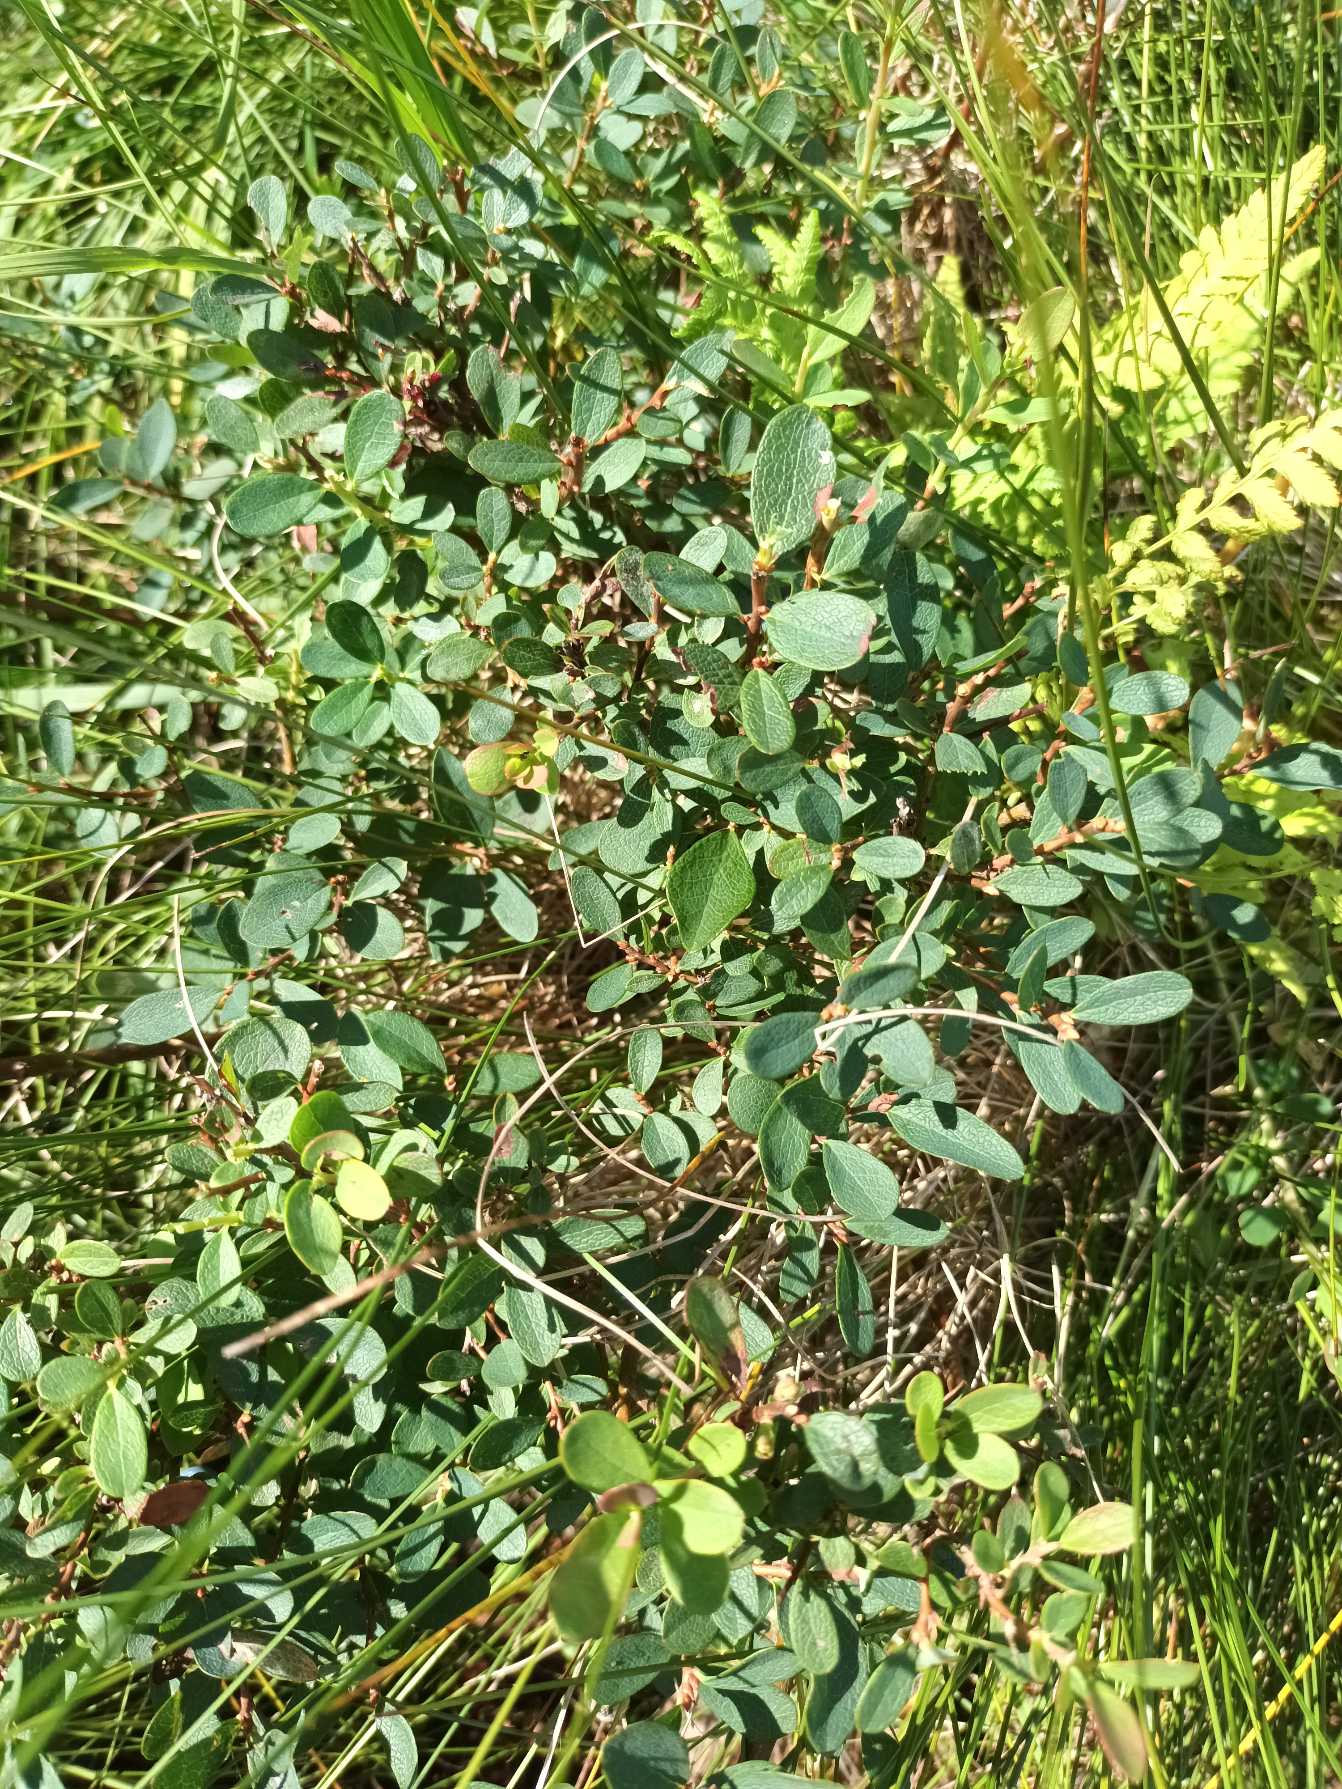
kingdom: Plantae
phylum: Tracheophyta
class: Magnoliopsida
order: Ericales
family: Ericaceae
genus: Vaccinium
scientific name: Vaccinium uliginosum
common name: Mose-bølle
